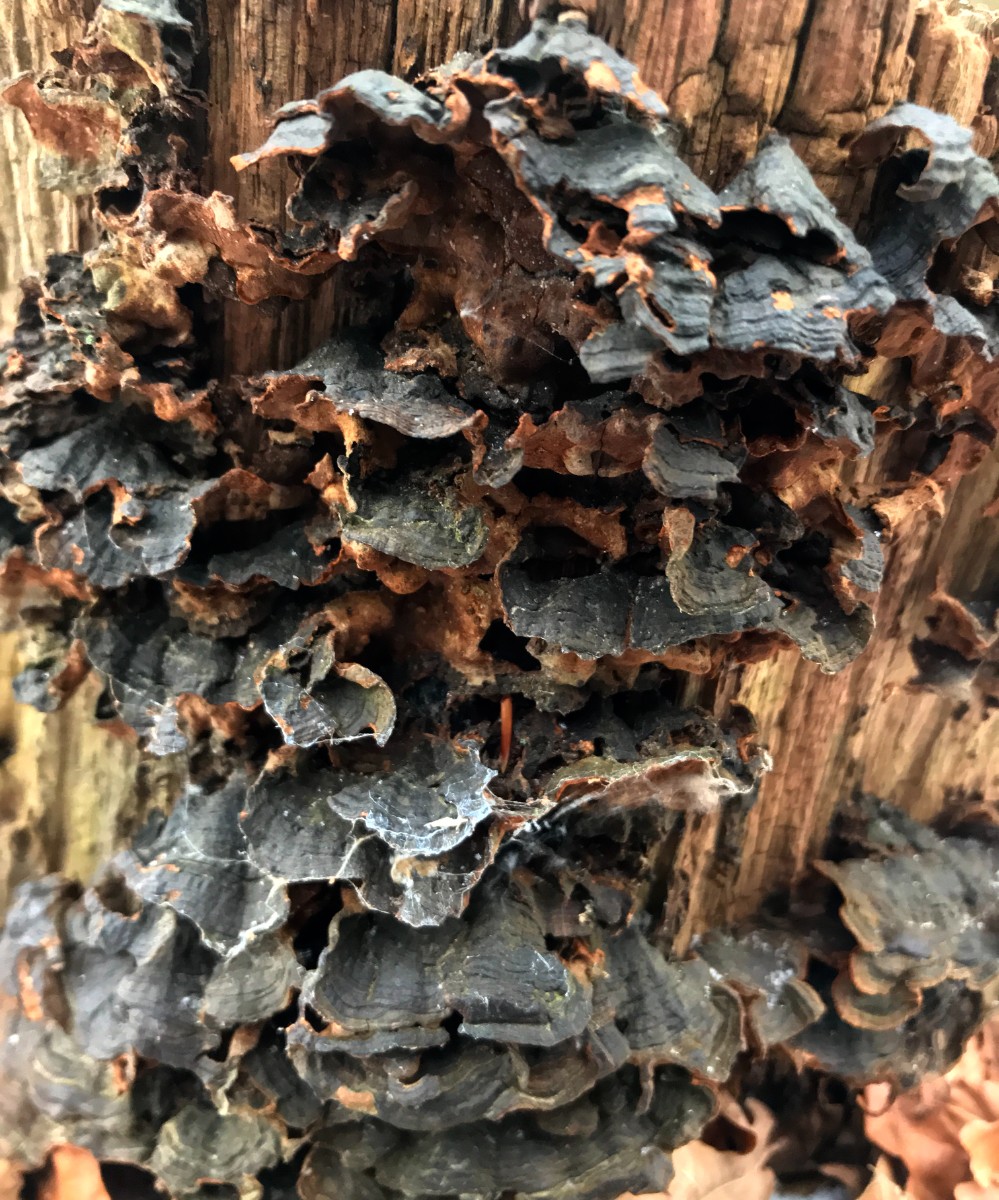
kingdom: Fungi
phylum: Basidiomycota
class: Agaricomycetes
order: Hymenochaetales
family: Hymenochaetaceae
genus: Hymenochaete
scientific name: Hymenochaete rubiginosa
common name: stiv ruslædersvamp
